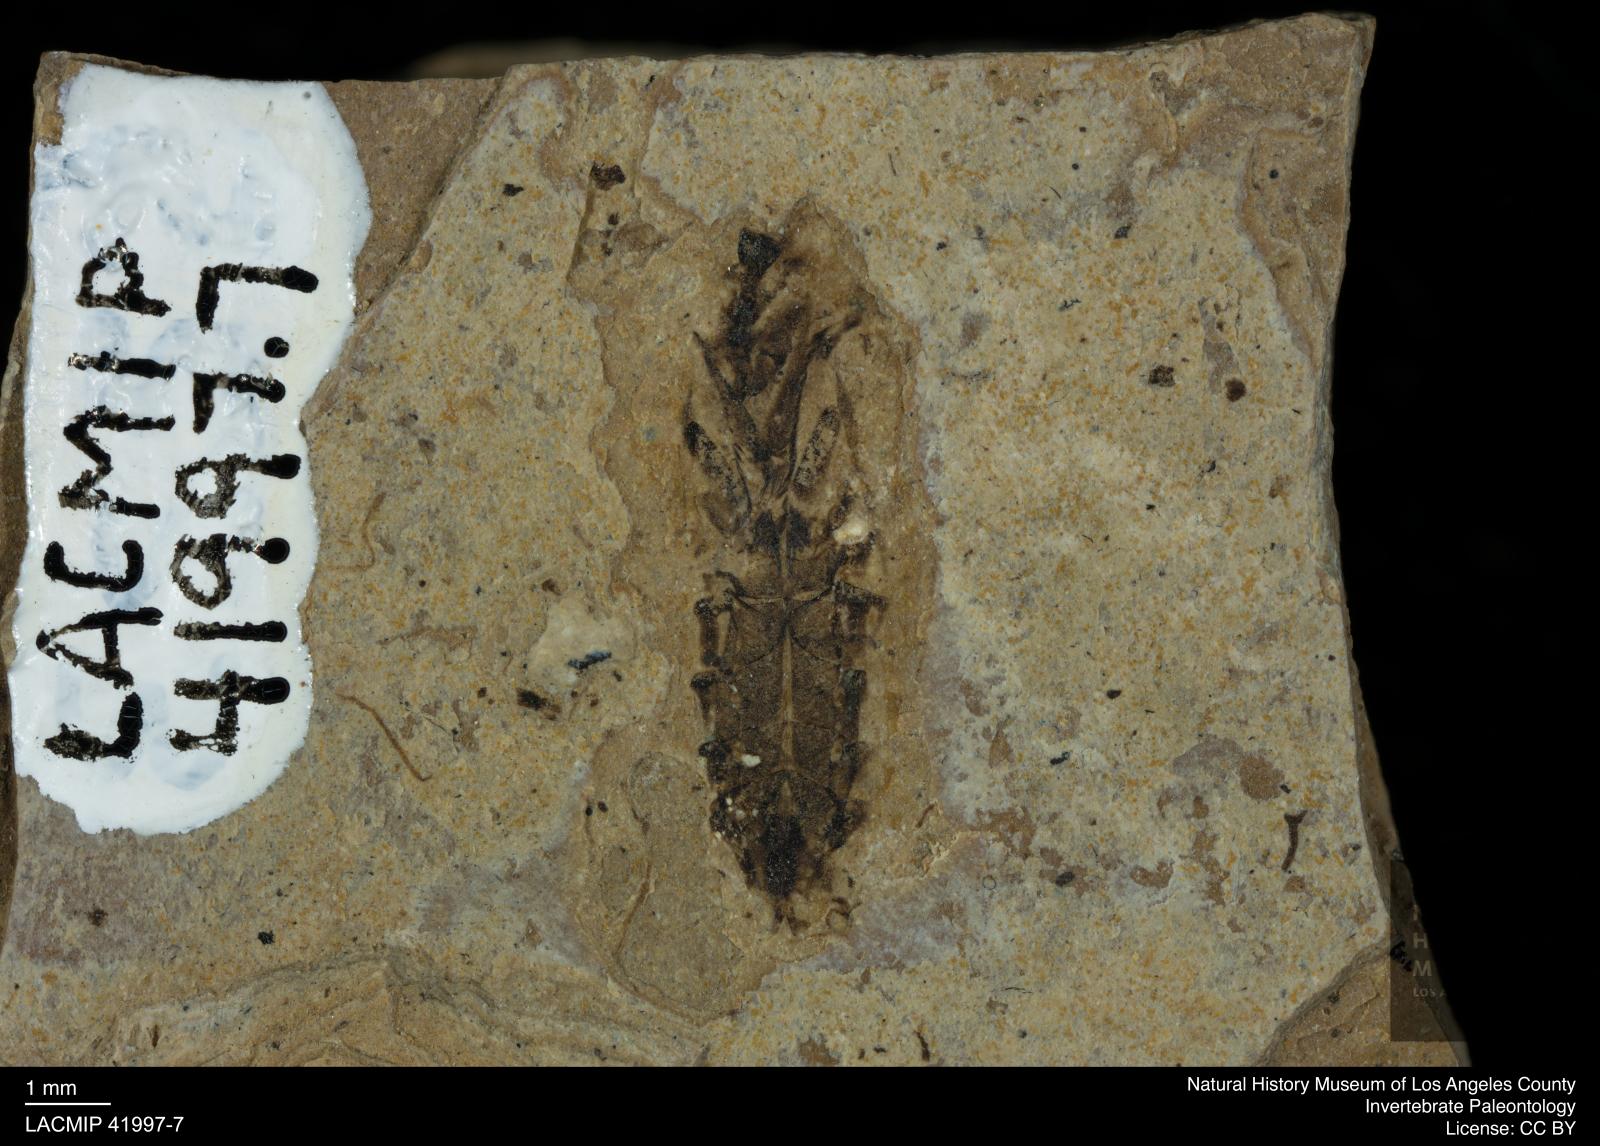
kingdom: Animalia
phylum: Arthropoda
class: Insecta
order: Hemiptera
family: Notonectidae
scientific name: Notonectidae
